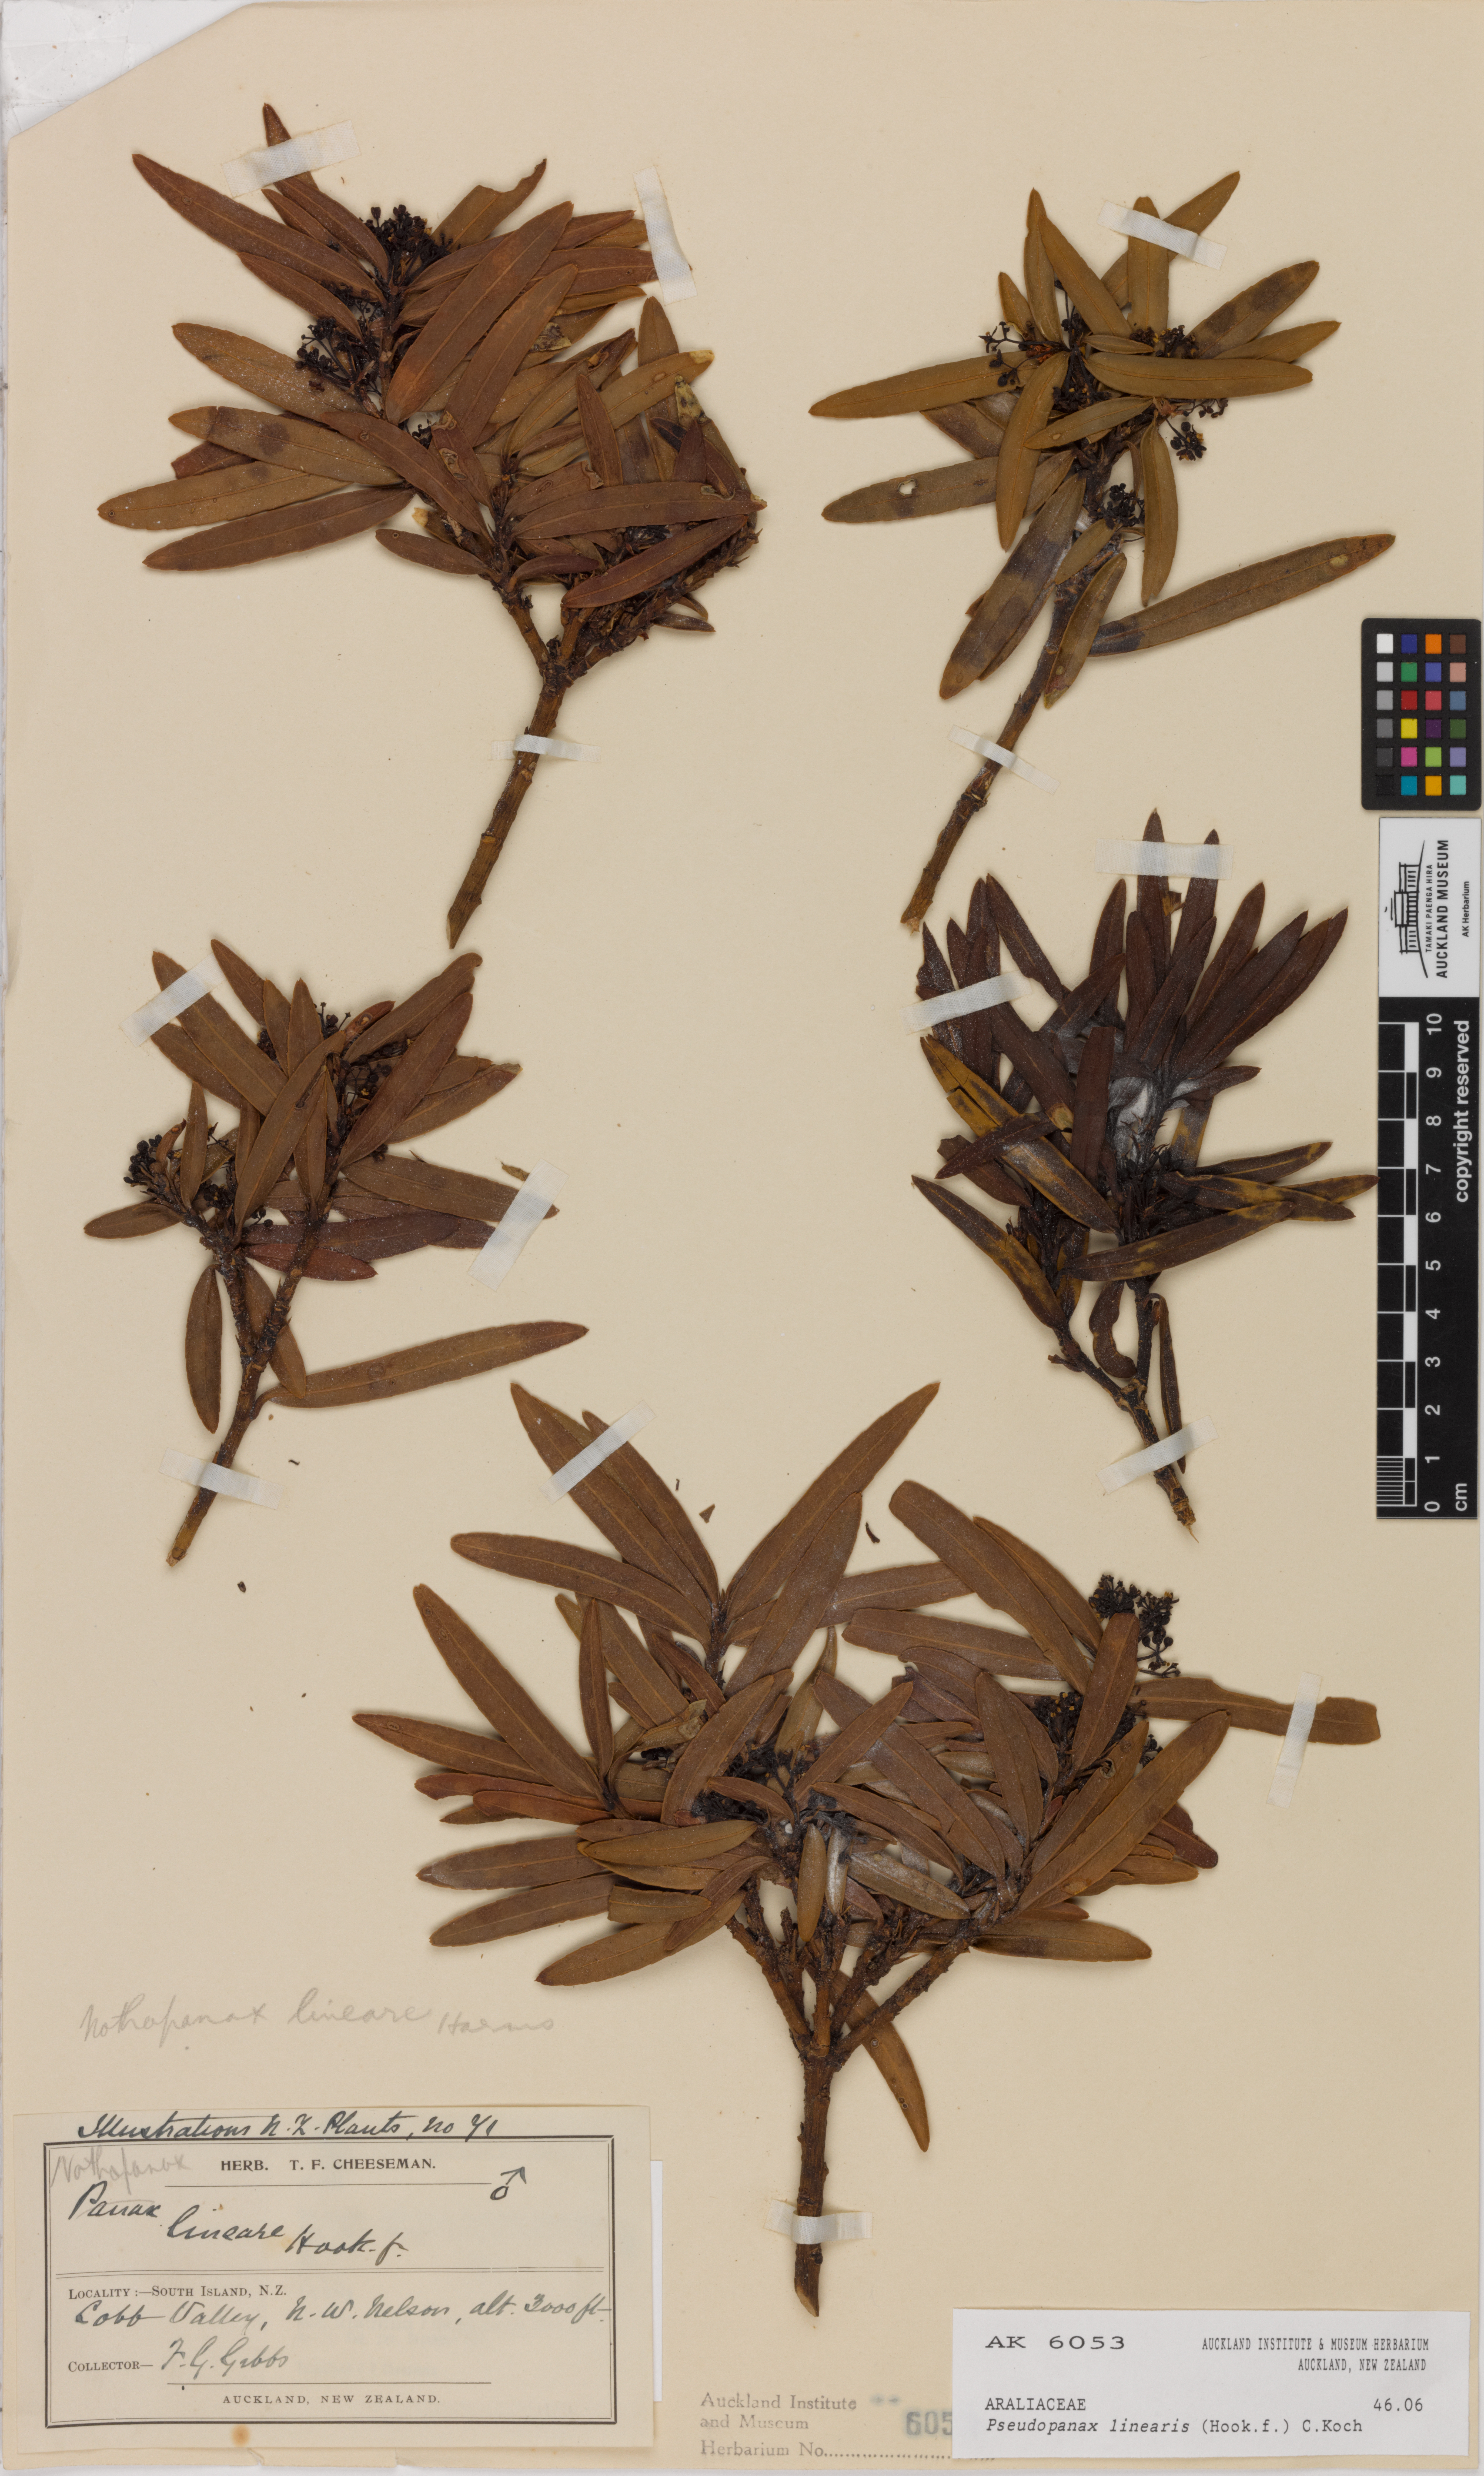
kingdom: Plantae
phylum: Tracheophyta
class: Magnoliopsida
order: Apiales
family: Araliaceae
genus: Pseudopanax
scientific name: Pseudopanax linearis
